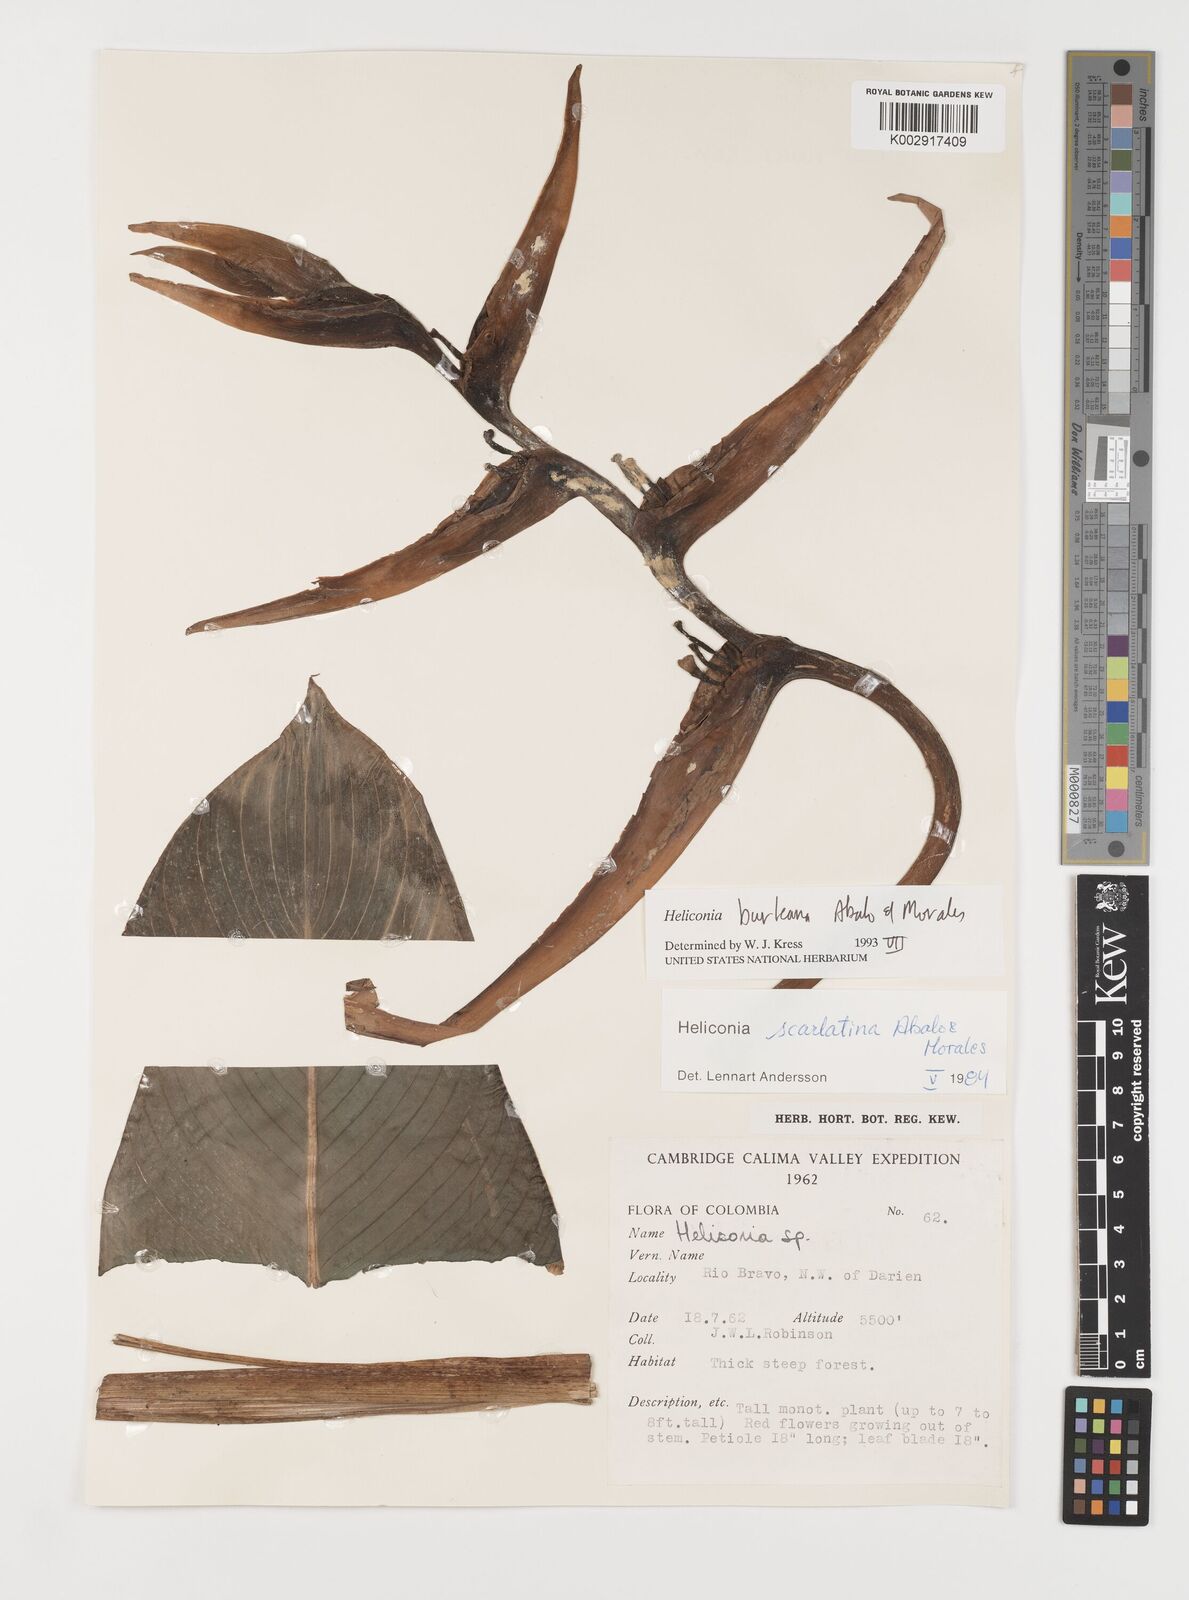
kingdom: Plantae
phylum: Tracheophyta
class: Liliopsida
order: Zingiberales
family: Heliconiaceae
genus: Heliconia
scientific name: Heliconia burleana
